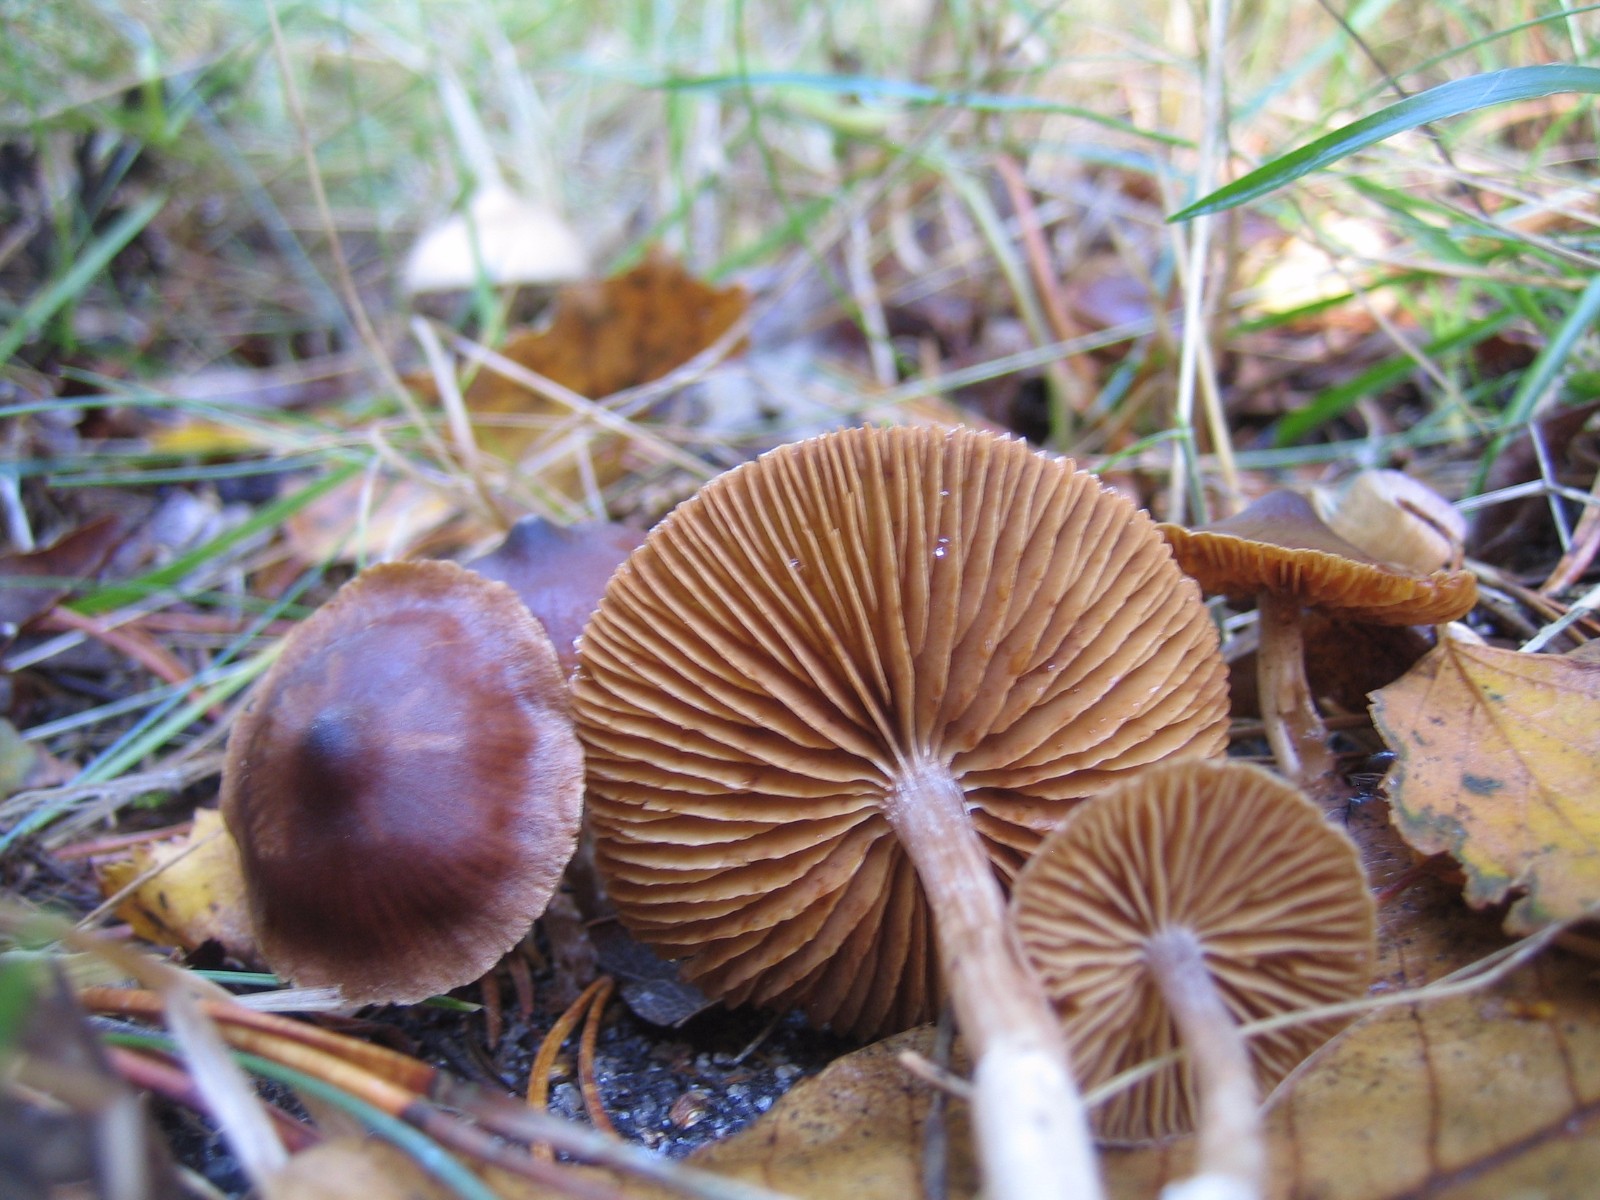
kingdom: Fungi
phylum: Basidiomycota
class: Agaricomycetes
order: Agaricales
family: Cortinariaceae
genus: Cortinarius
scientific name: Cortinarius
